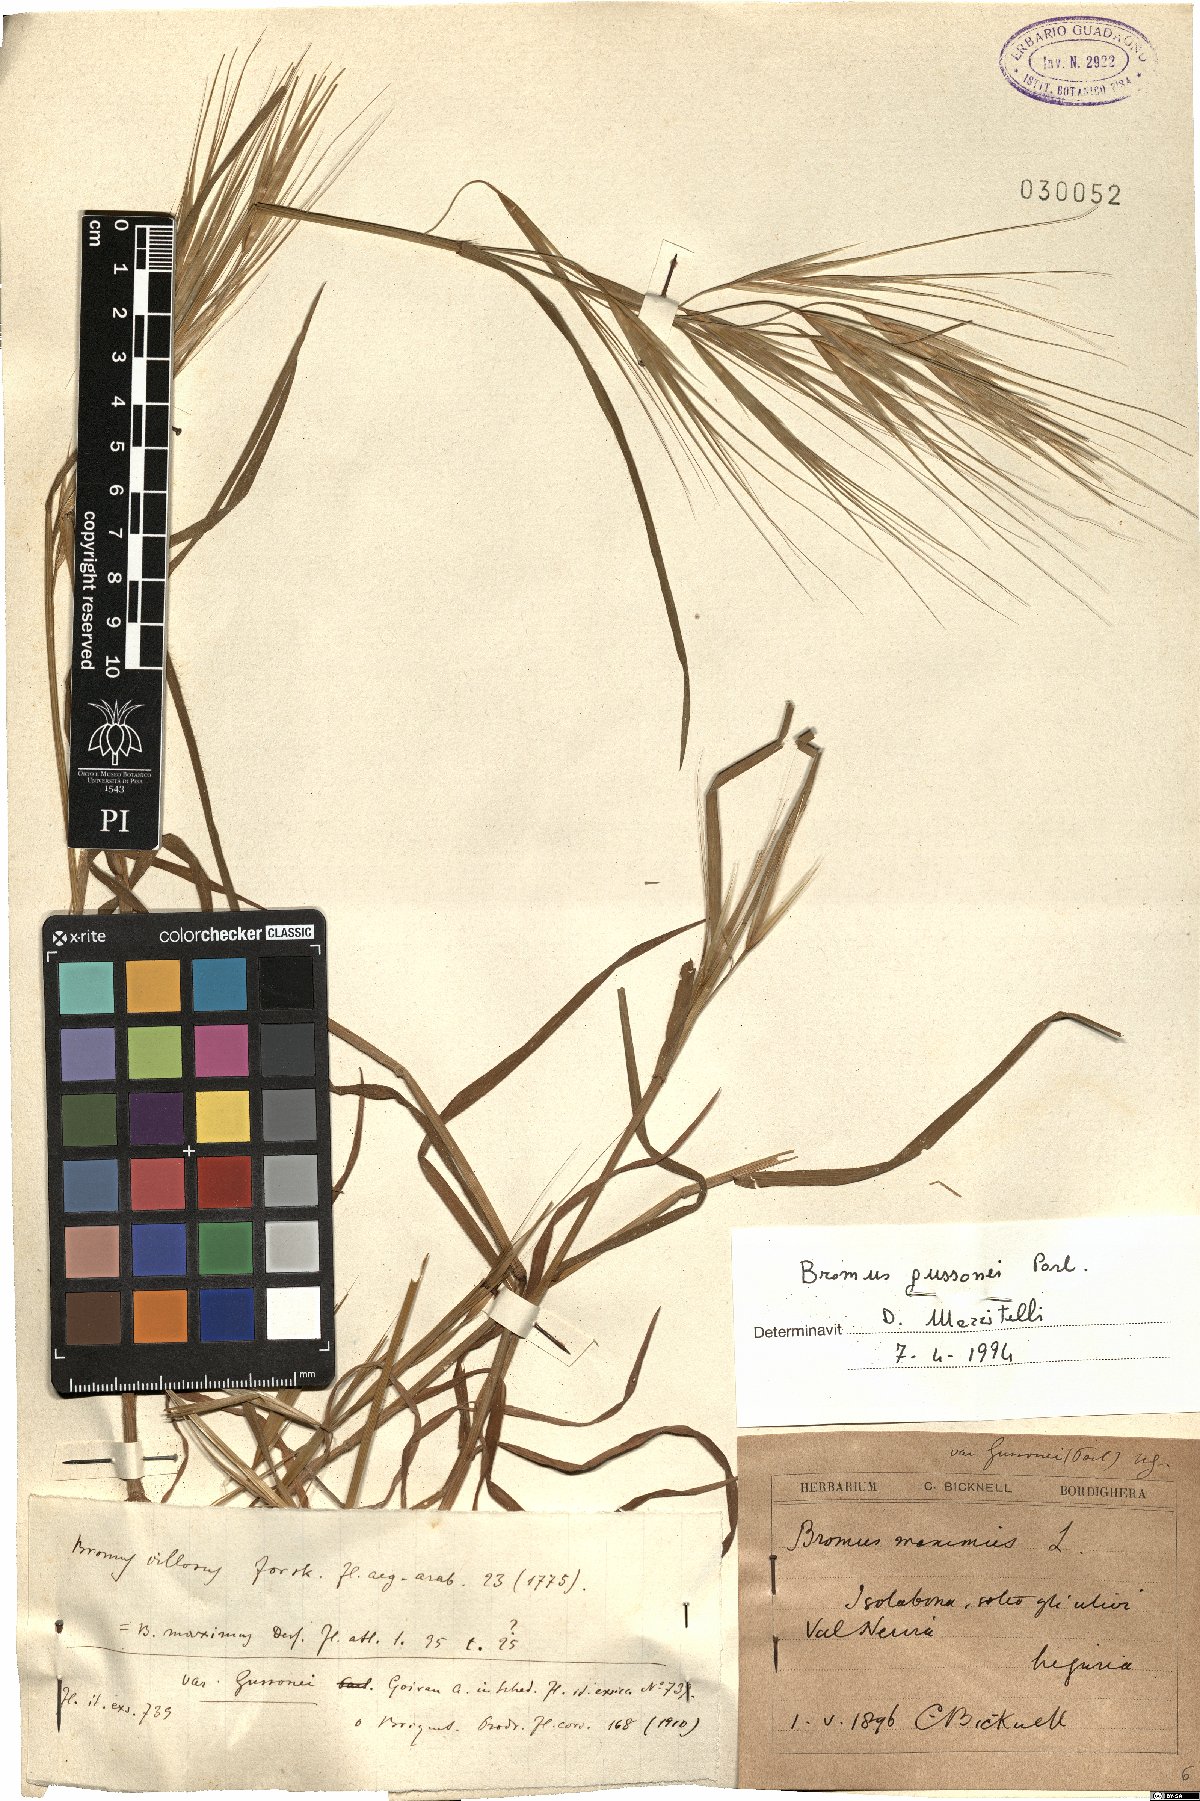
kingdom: Plantae
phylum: Tracheophyta
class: Liliopsida
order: Poales
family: Poaceae
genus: Bromus
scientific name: Bromus diandrus
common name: Ripgut brome
